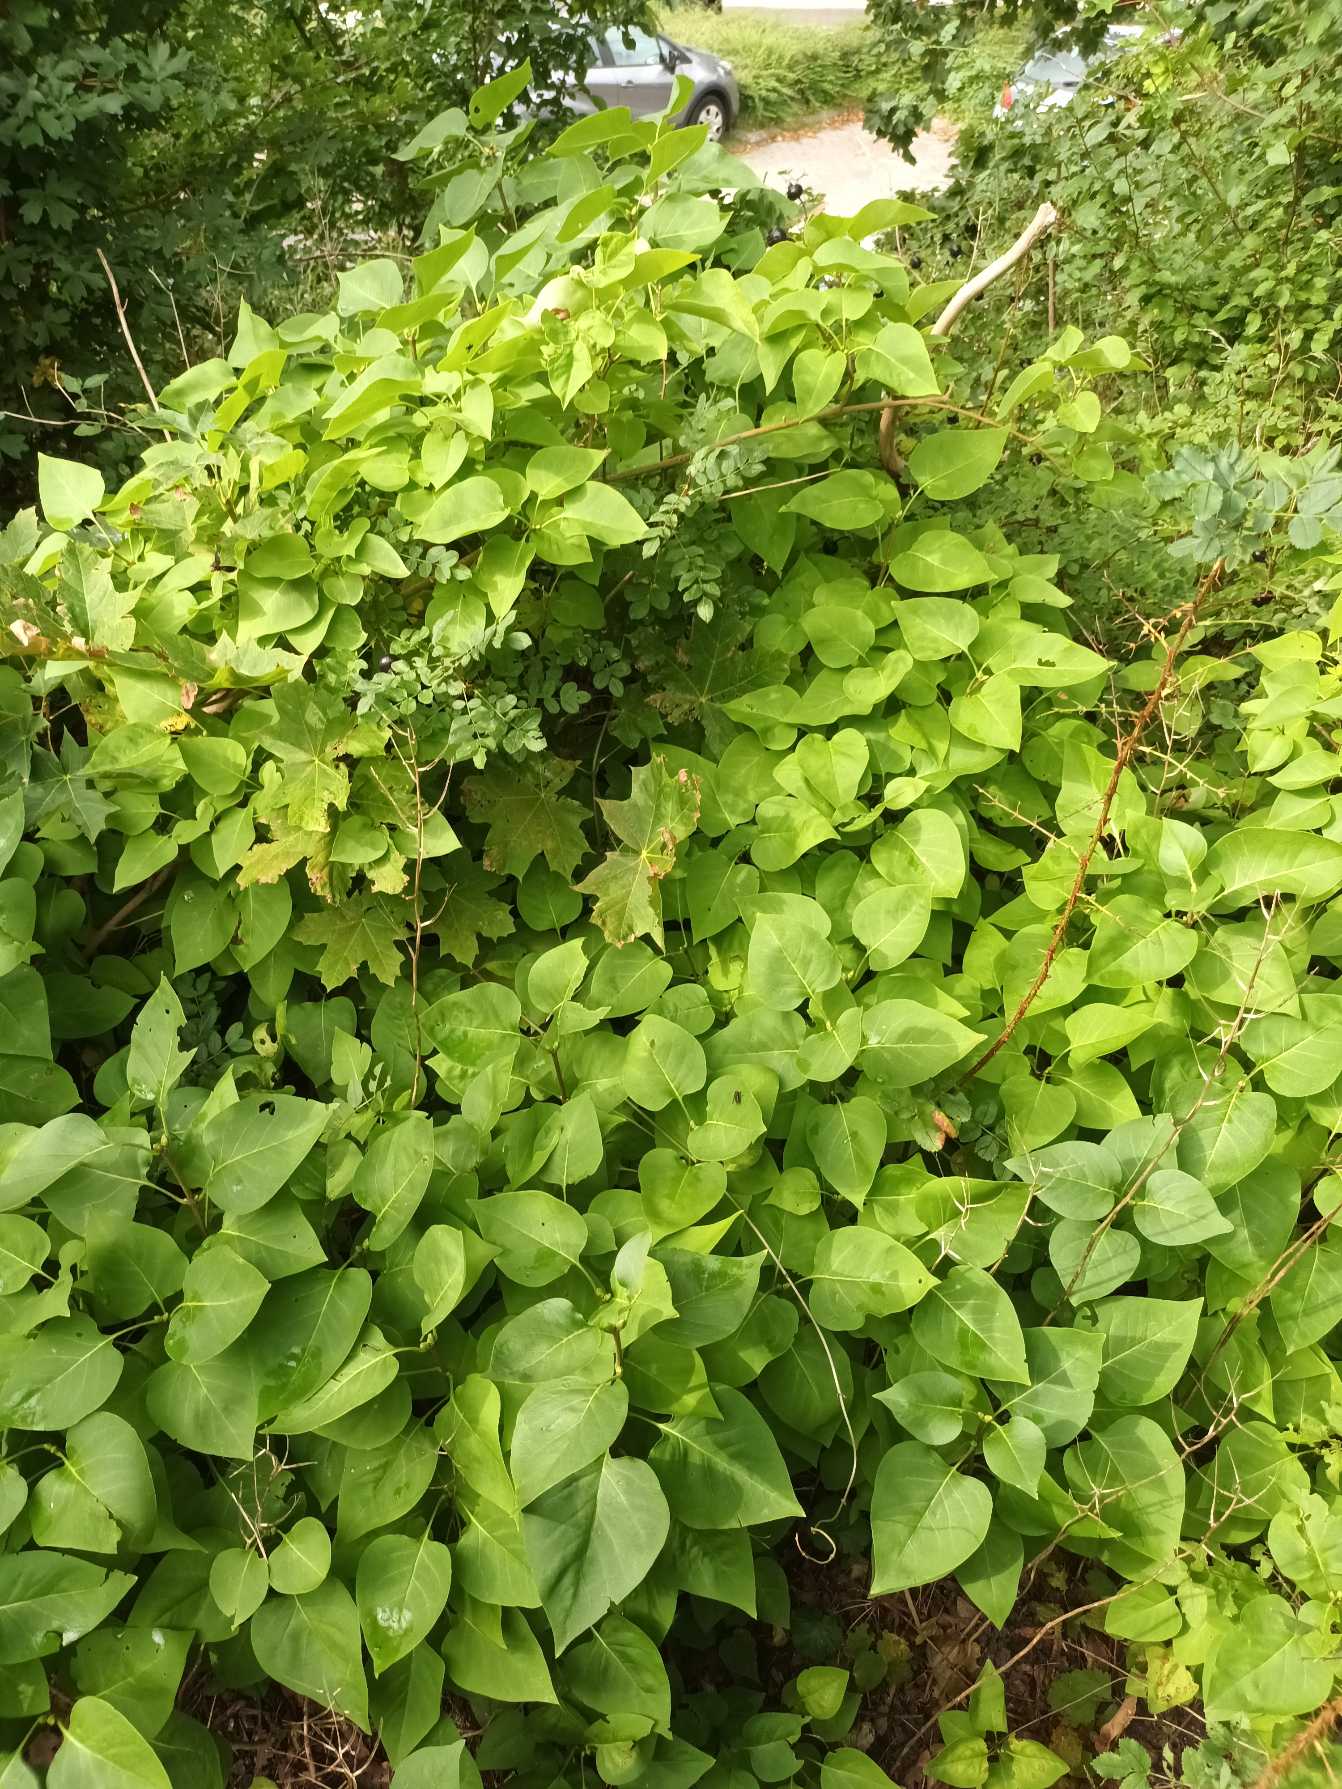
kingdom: Plantae
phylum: Tracheophyta
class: Magnoliopsida
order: Lamiales
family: Oleaceae
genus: Syringa
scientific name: Syringa vulgaris
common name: Syren
